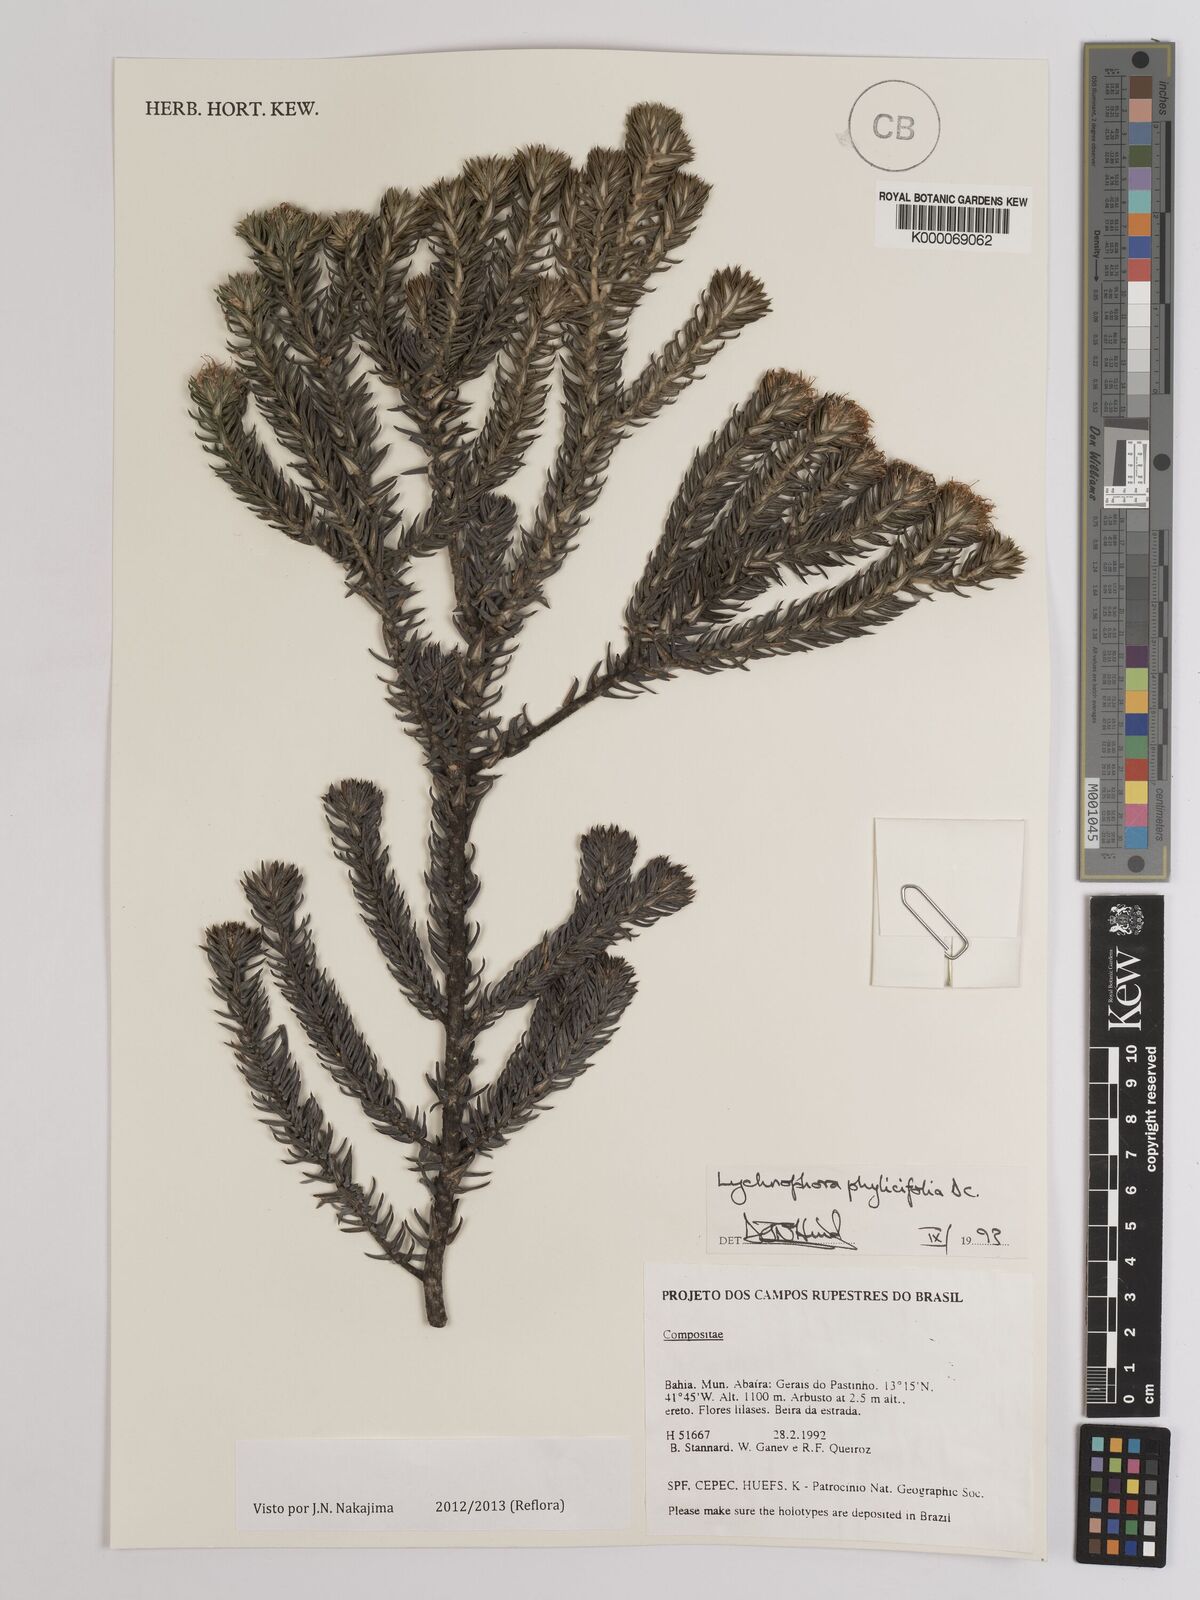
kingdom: Plantae
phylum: Tracheophyta
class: Magnoliopsida
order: Asterales
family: Asteraceae
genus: Lychnophora
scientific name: Lychnophora phylicifolia
